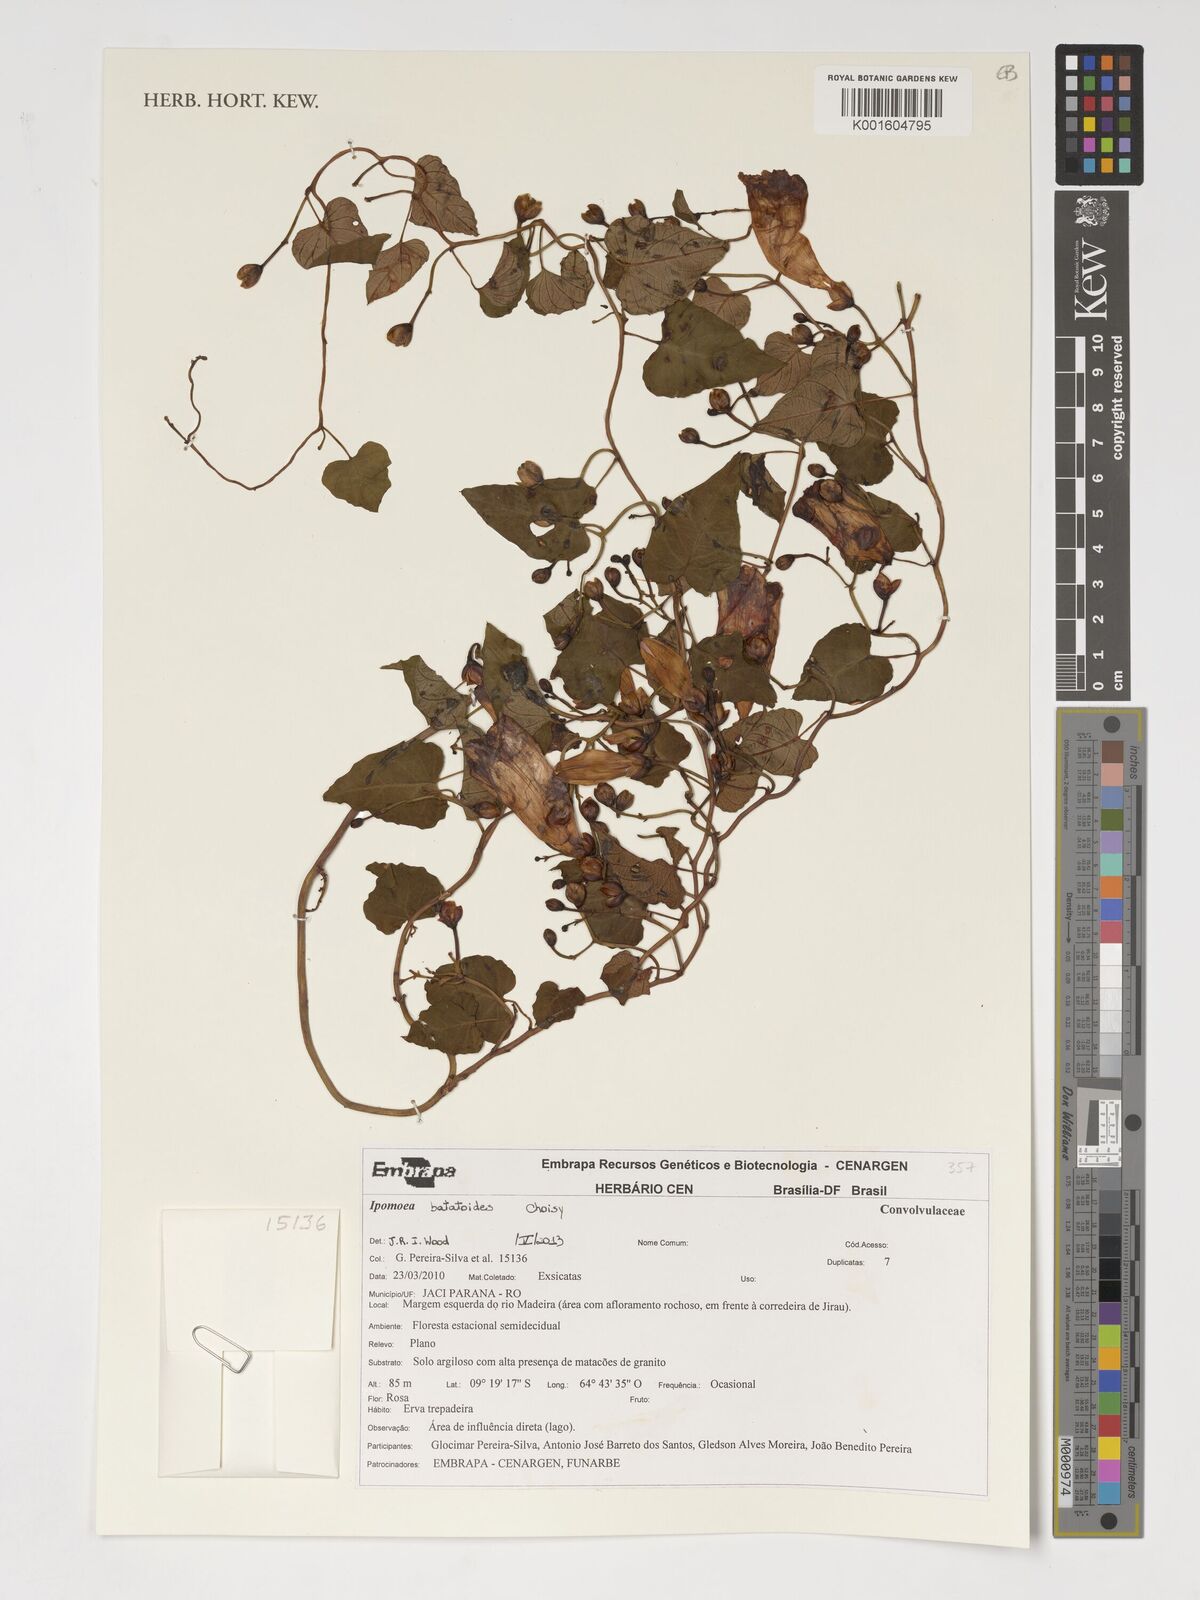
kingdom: Plantae
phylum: Tracheophyta
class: Magnoliopsida
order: Solanales
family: Convolvulaceae
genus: Ipomoea
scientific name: Ipomoea batatoides
